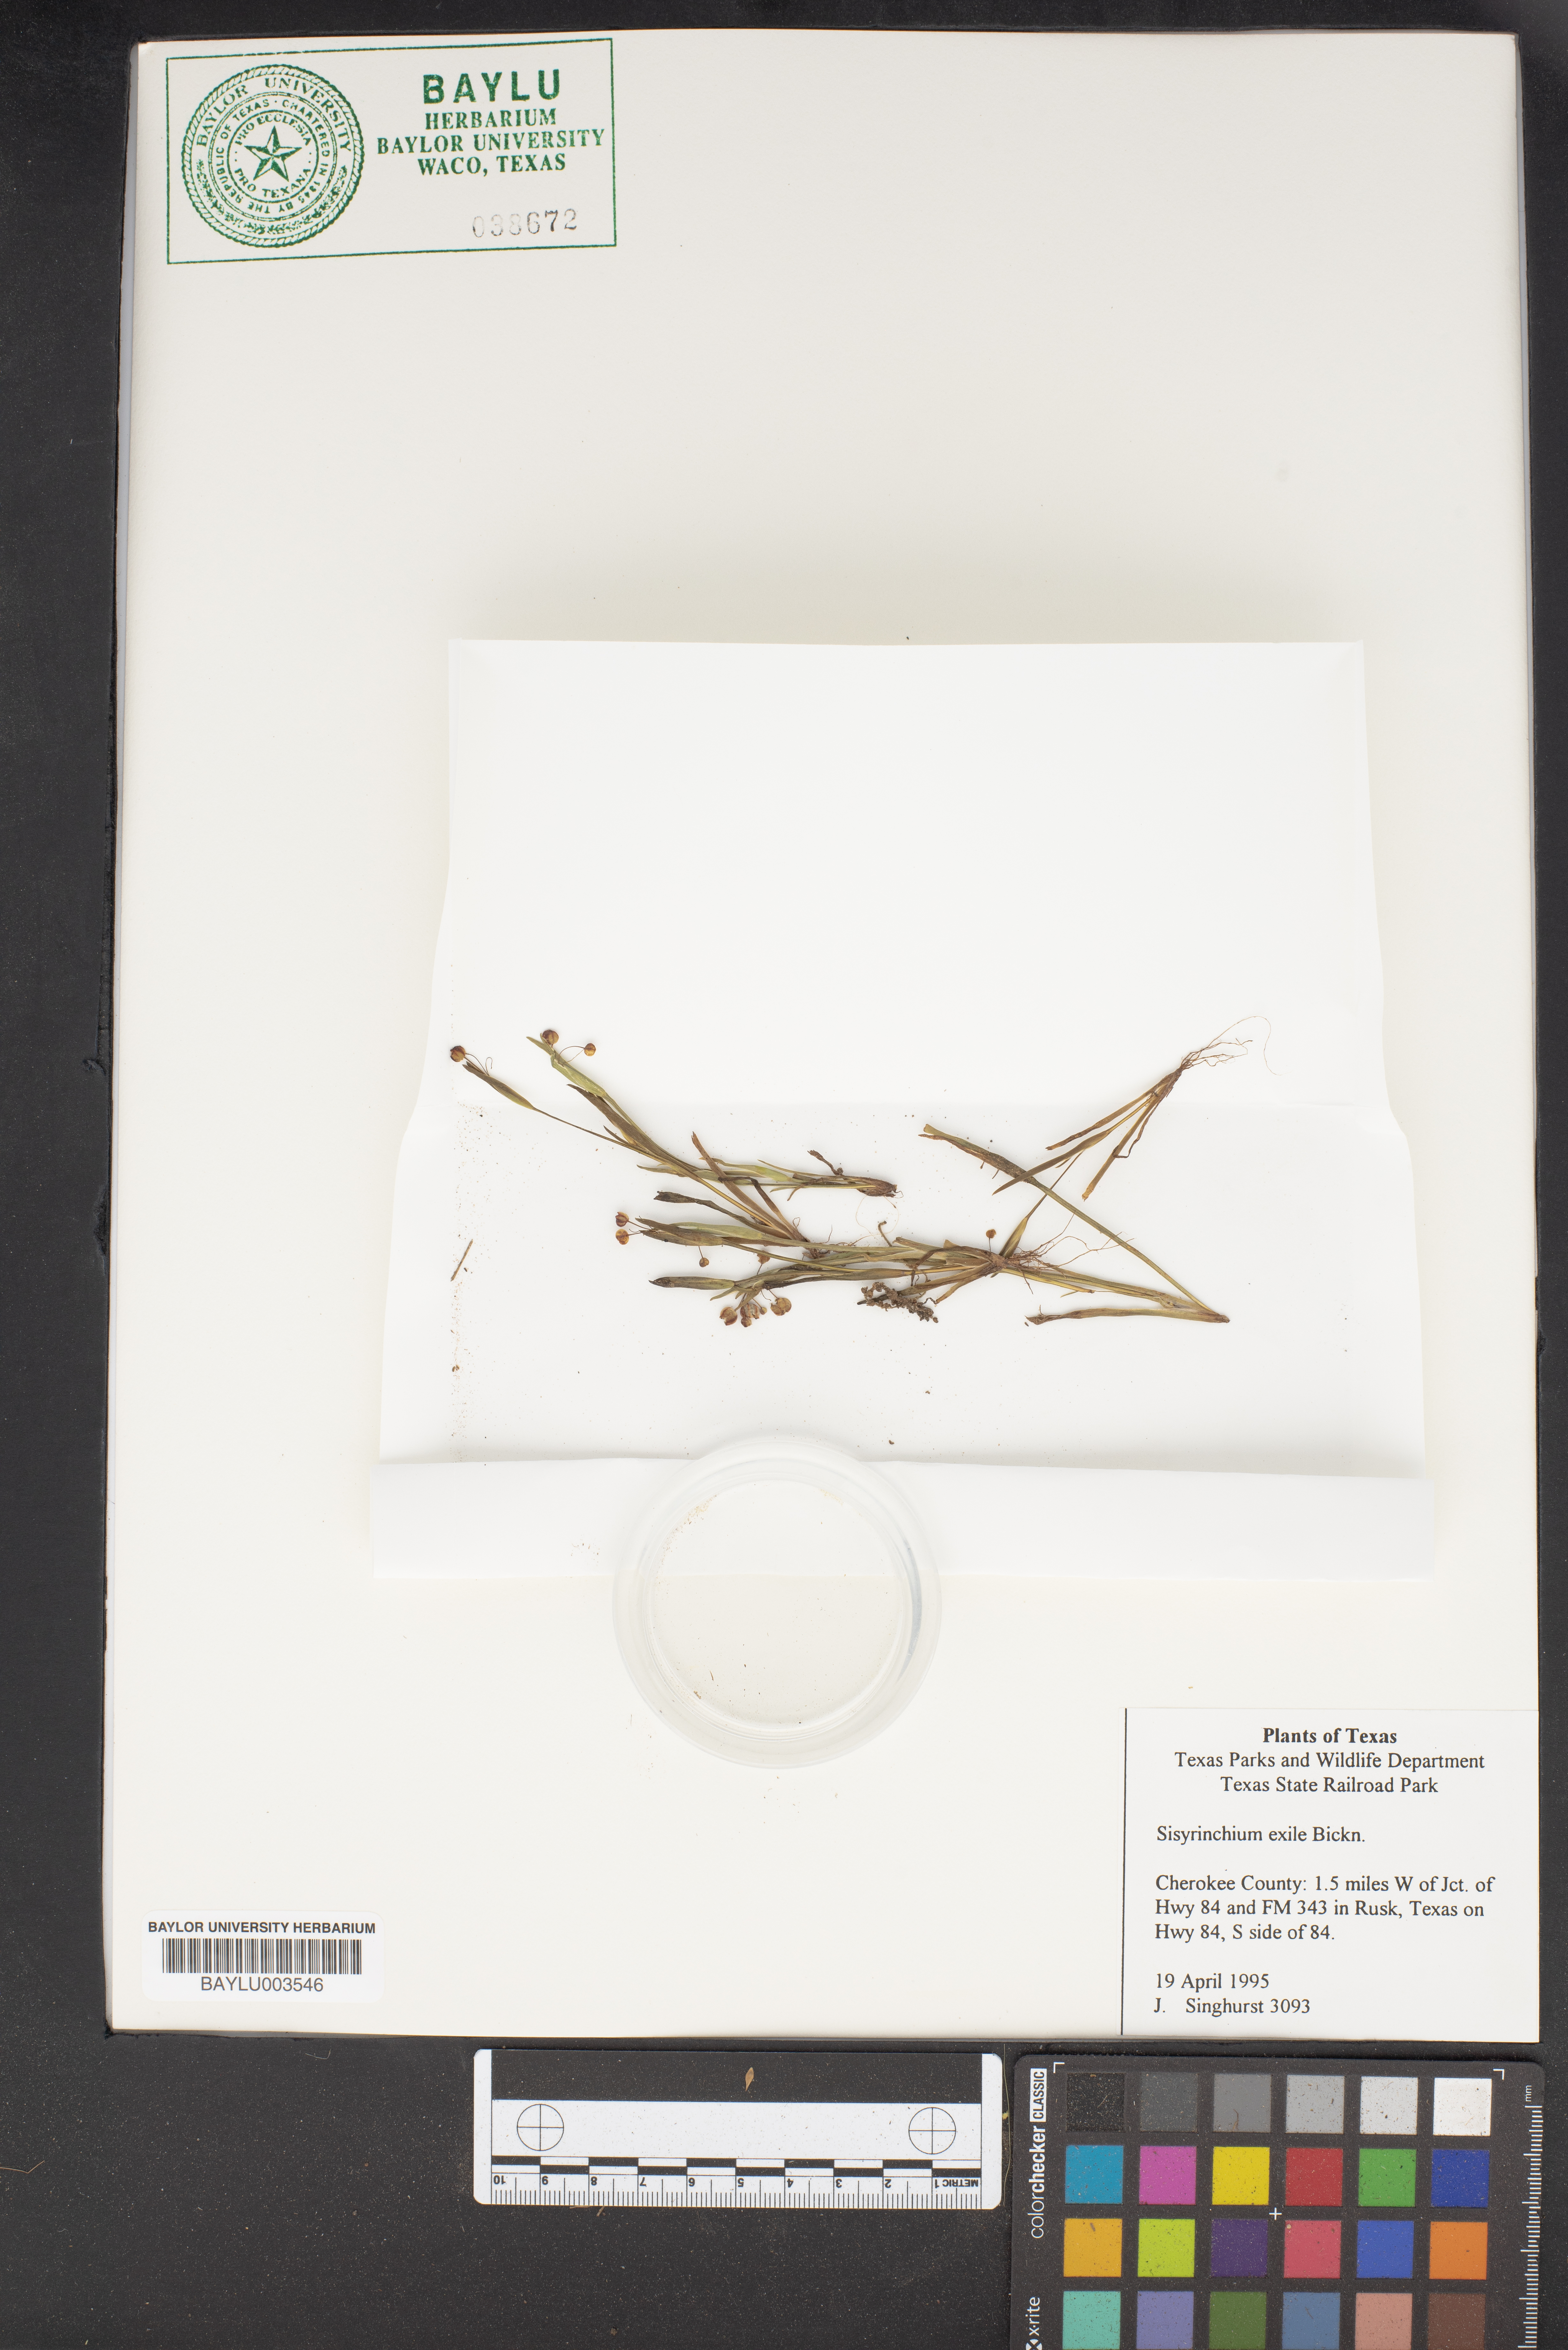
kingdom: Plantae
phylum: Tracheophyta
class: Liliopsida
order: Asparagales
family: Iridaceae
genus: Sisyrinchium
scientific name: Sisyrinchium rosulatum
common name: Annual blue-eyed grass
